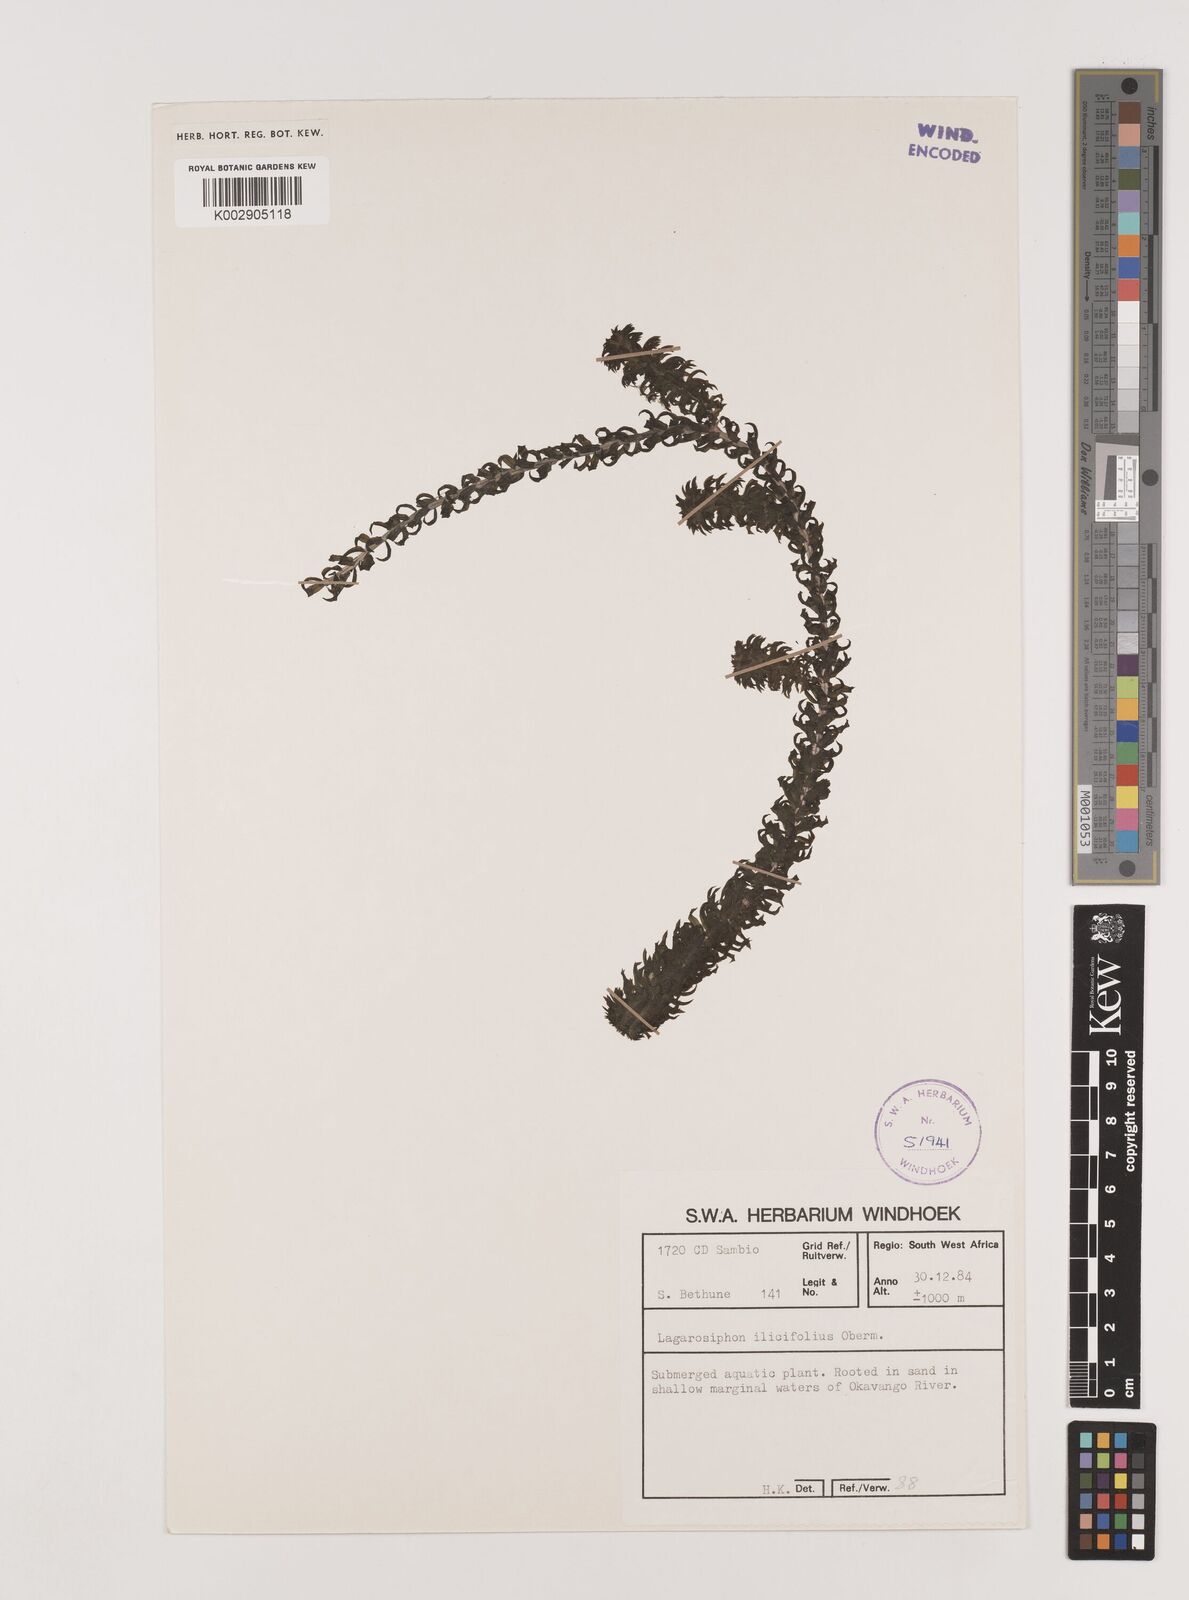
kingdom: Plantae
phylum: Tracheophyta
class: Liliopsida
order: Alismatales
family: Hydrocharitaceae
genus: Lagarosiphon
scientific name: Lagarosiphon ilicifolius
